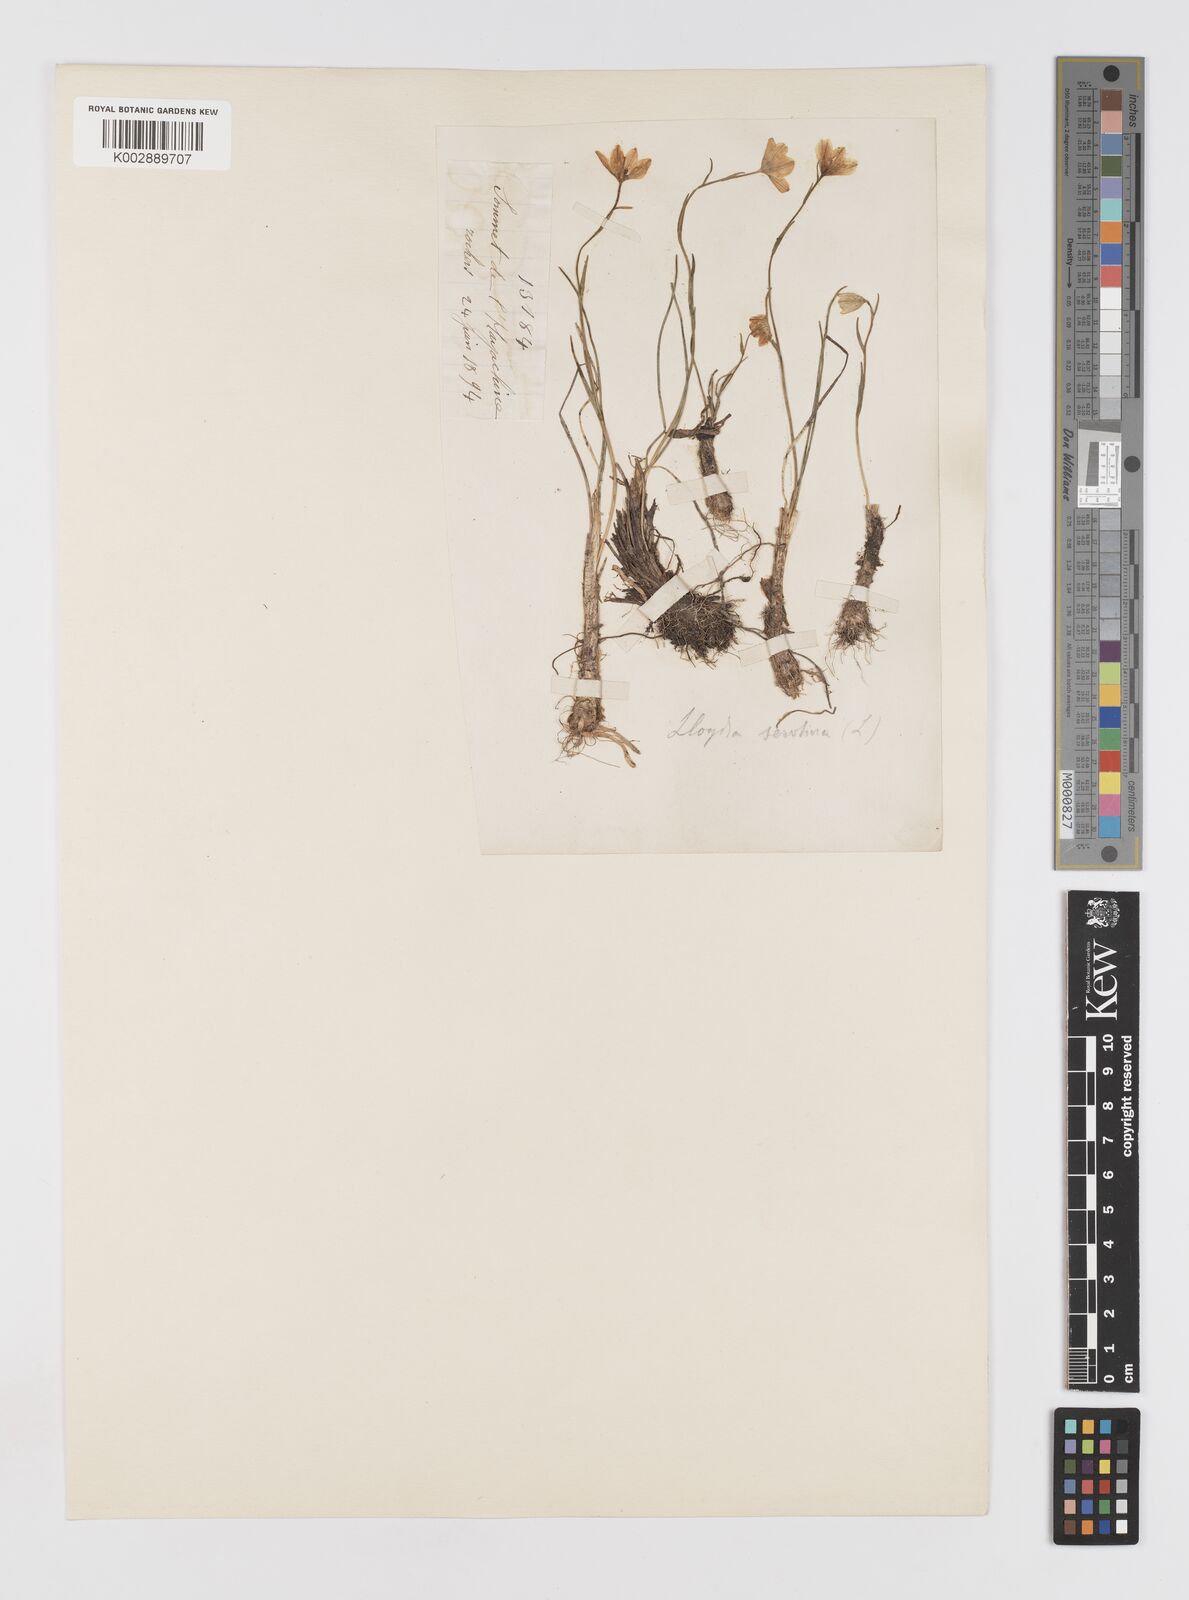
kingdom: Plantae
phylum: Tracheophyta
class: Liliopsida
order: Liliales
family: Liliaceae
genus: Gagea
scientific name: Gagea serotina
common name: Snowdon lily
